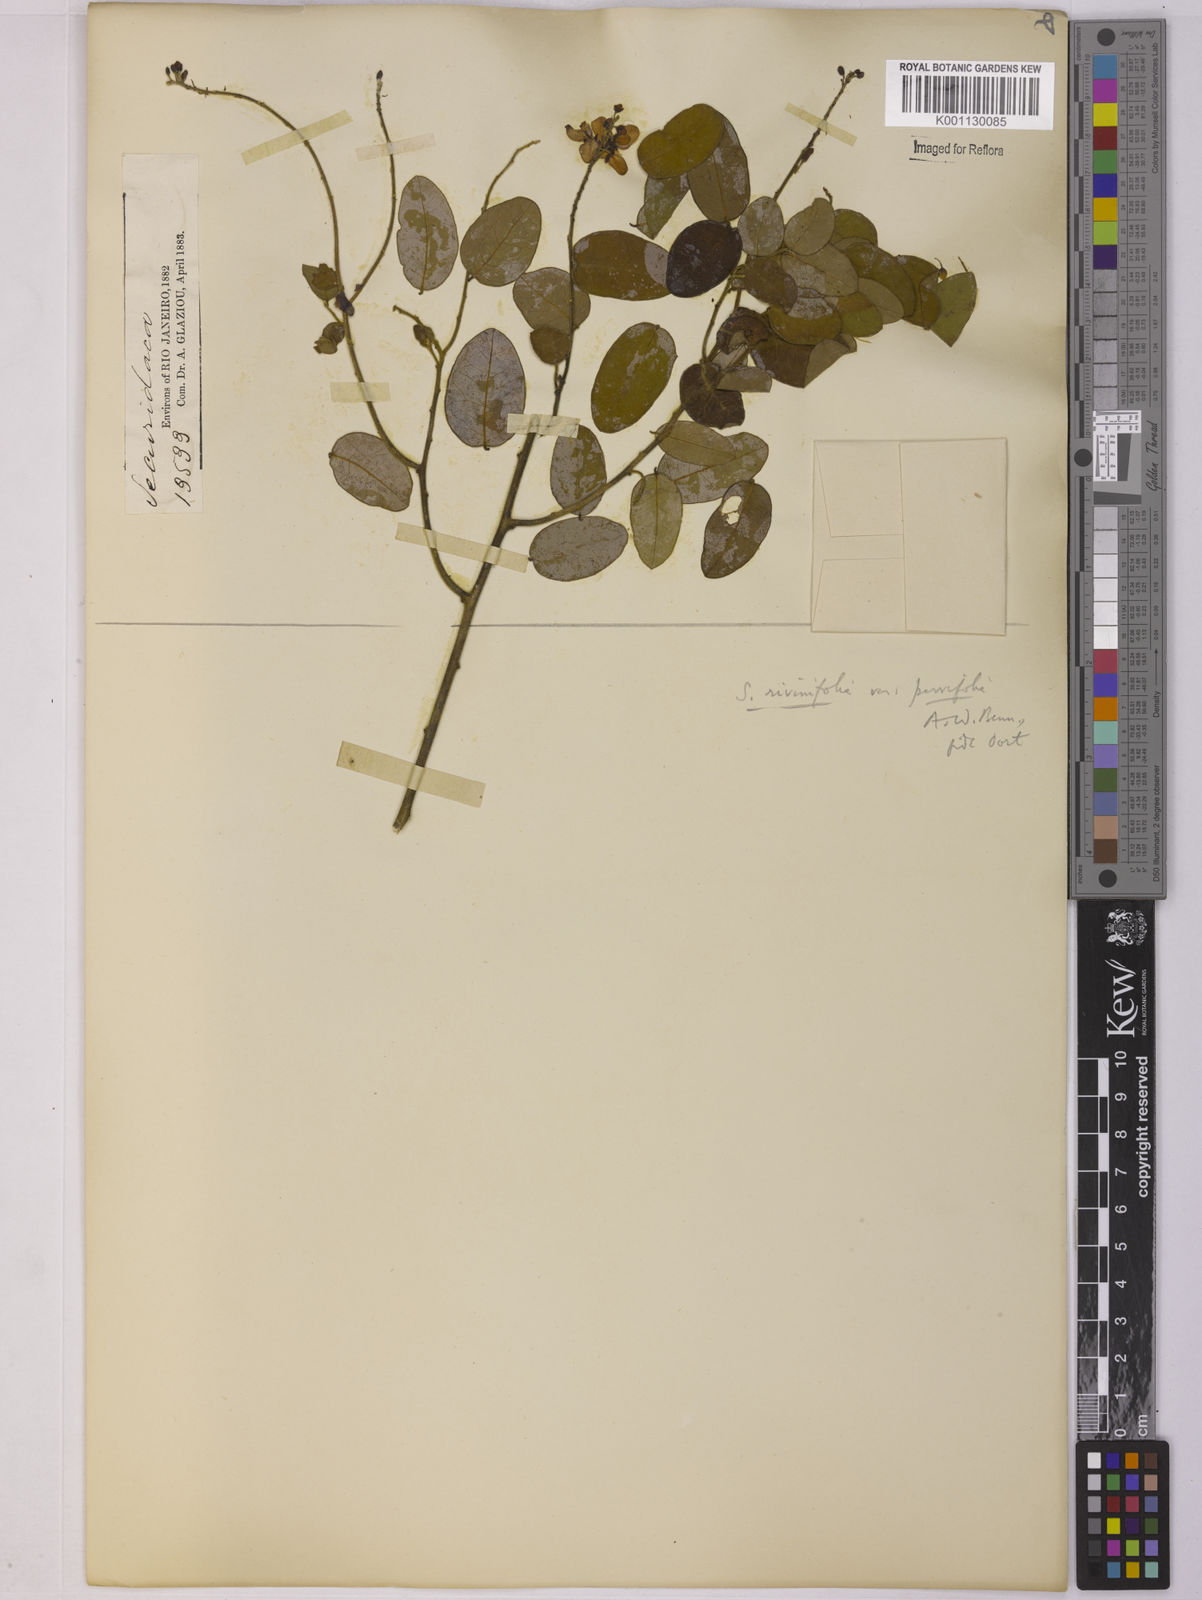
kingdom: Plantae
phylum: Tracheophyta
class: Magnoliopsida
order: Fabales
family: Polygalaceae
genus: Securidaca
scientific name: Securidaca rivinifolia
